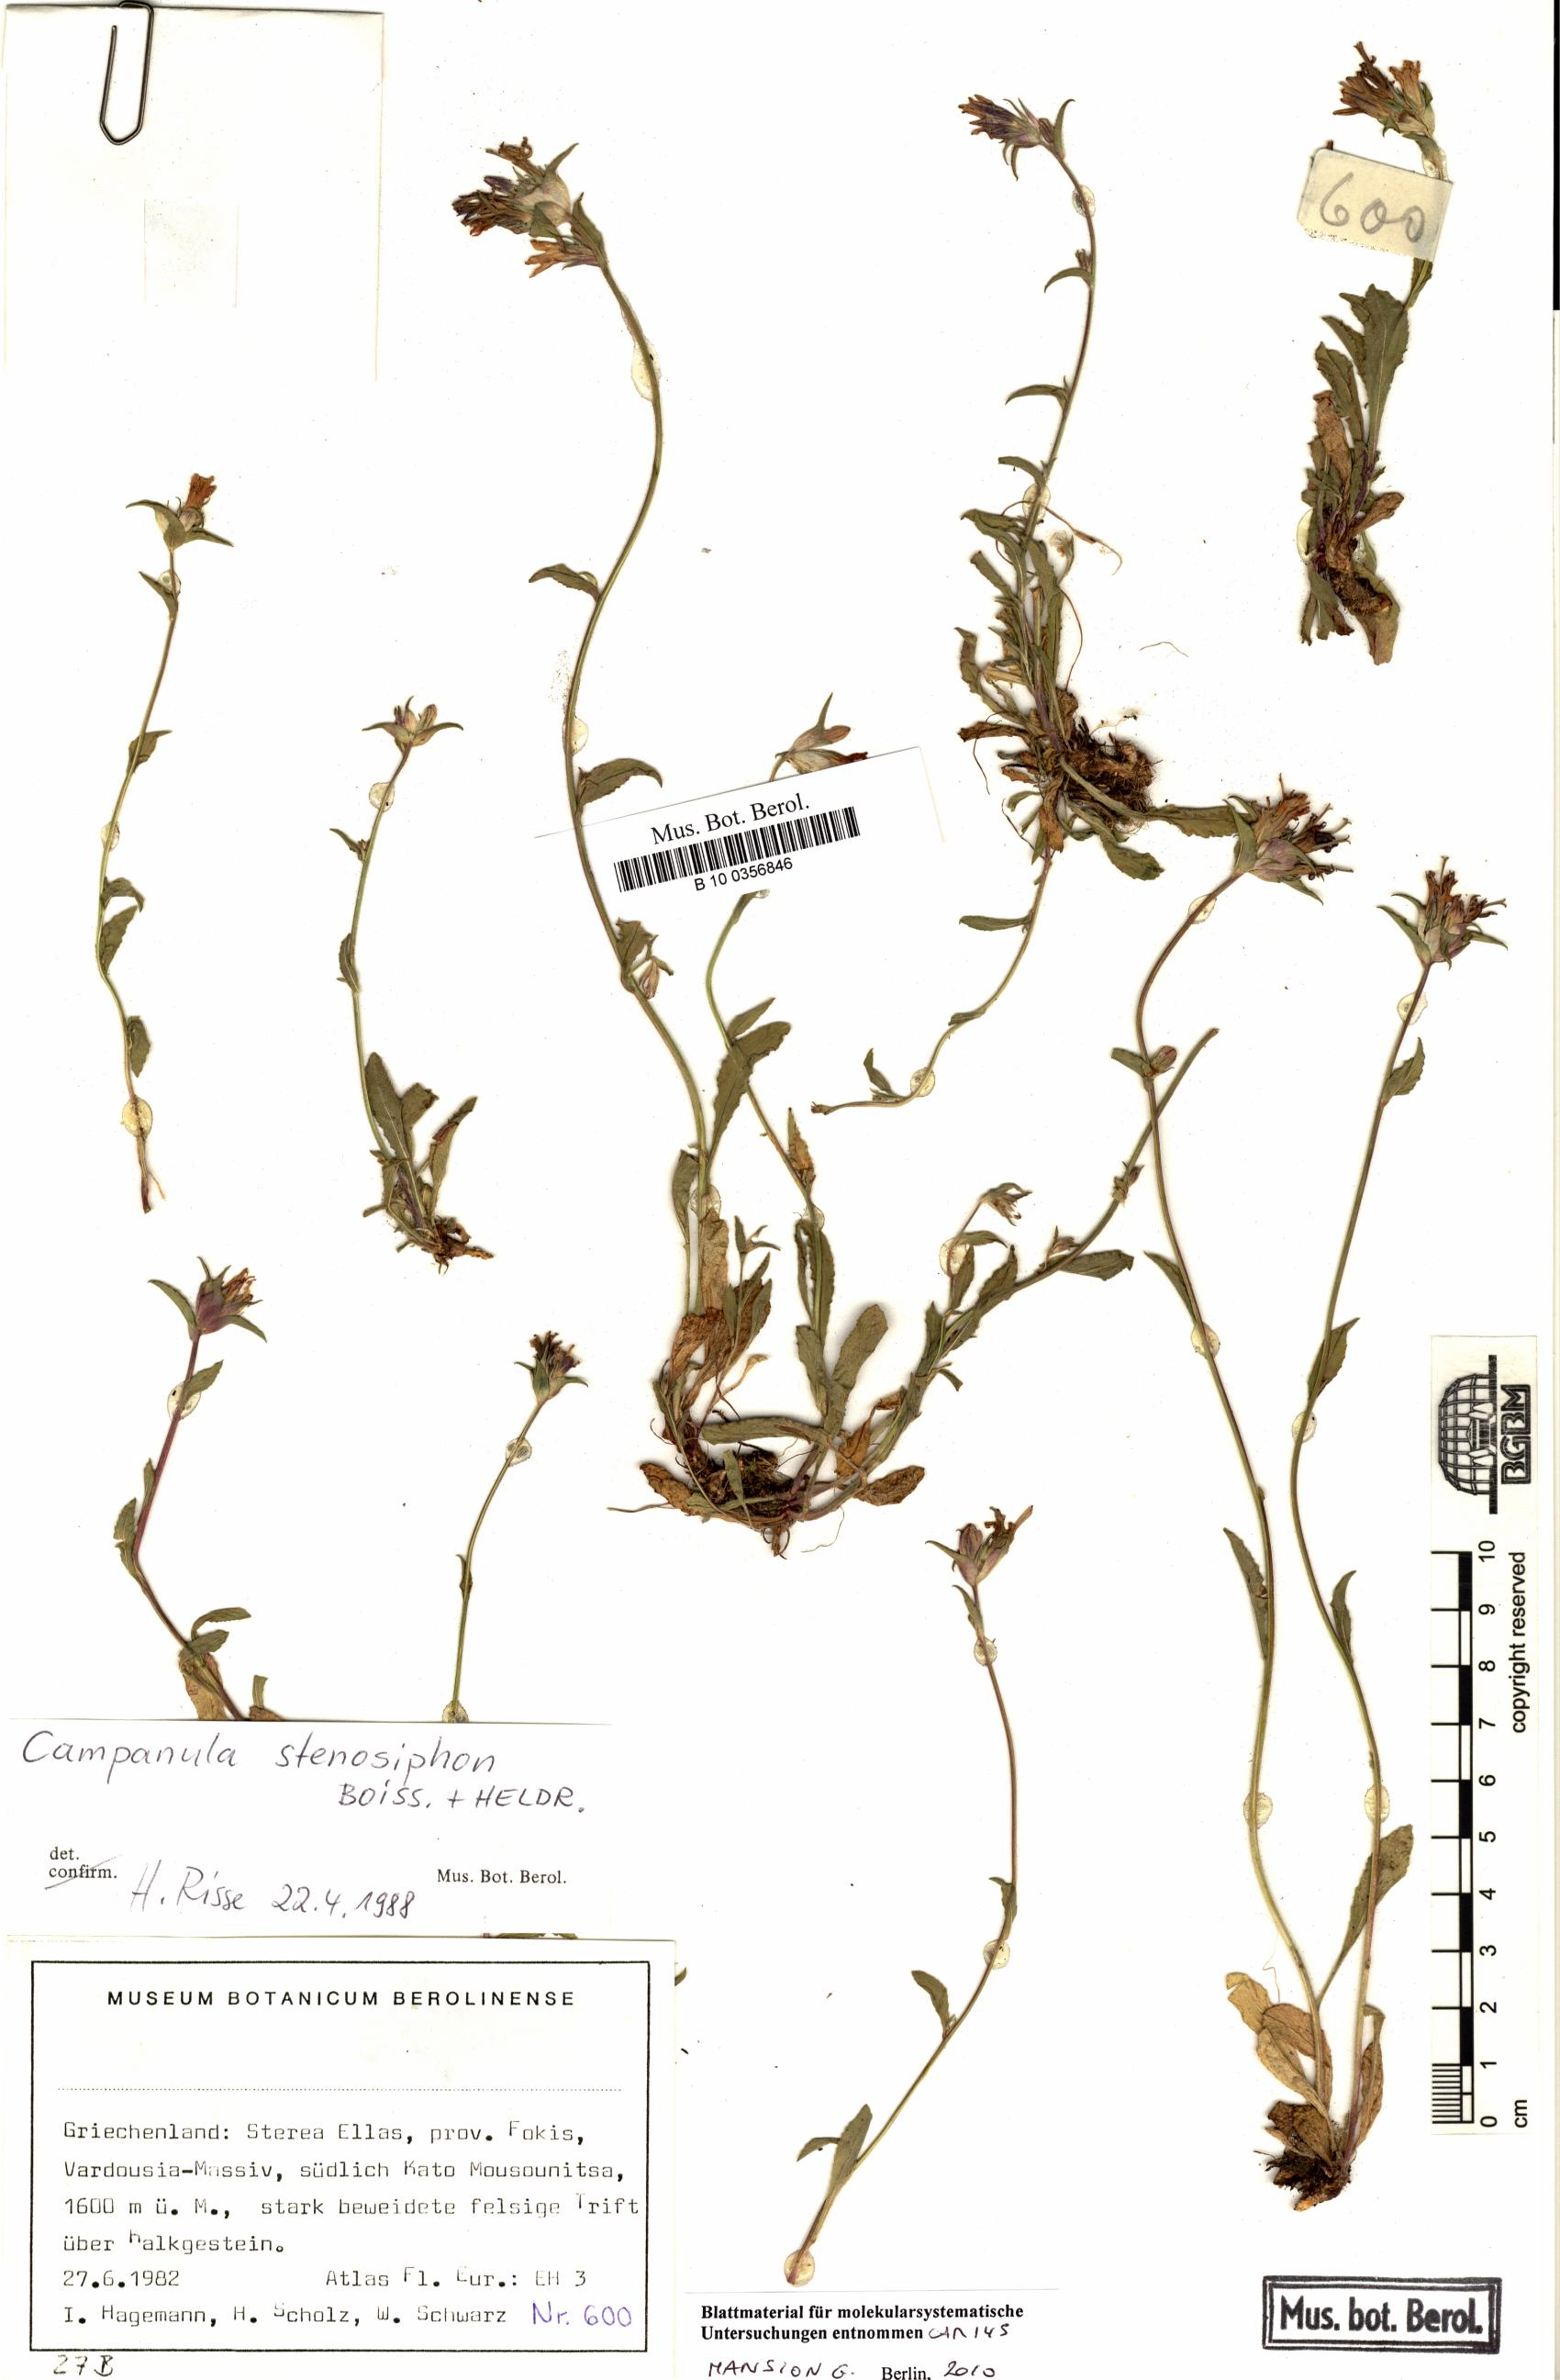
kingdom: Plantae
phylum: Tracheophyta
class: Magnoliopsida
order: Asterales
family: Campanulaceae
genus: Campanula
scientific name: Campanula stenosiphon
